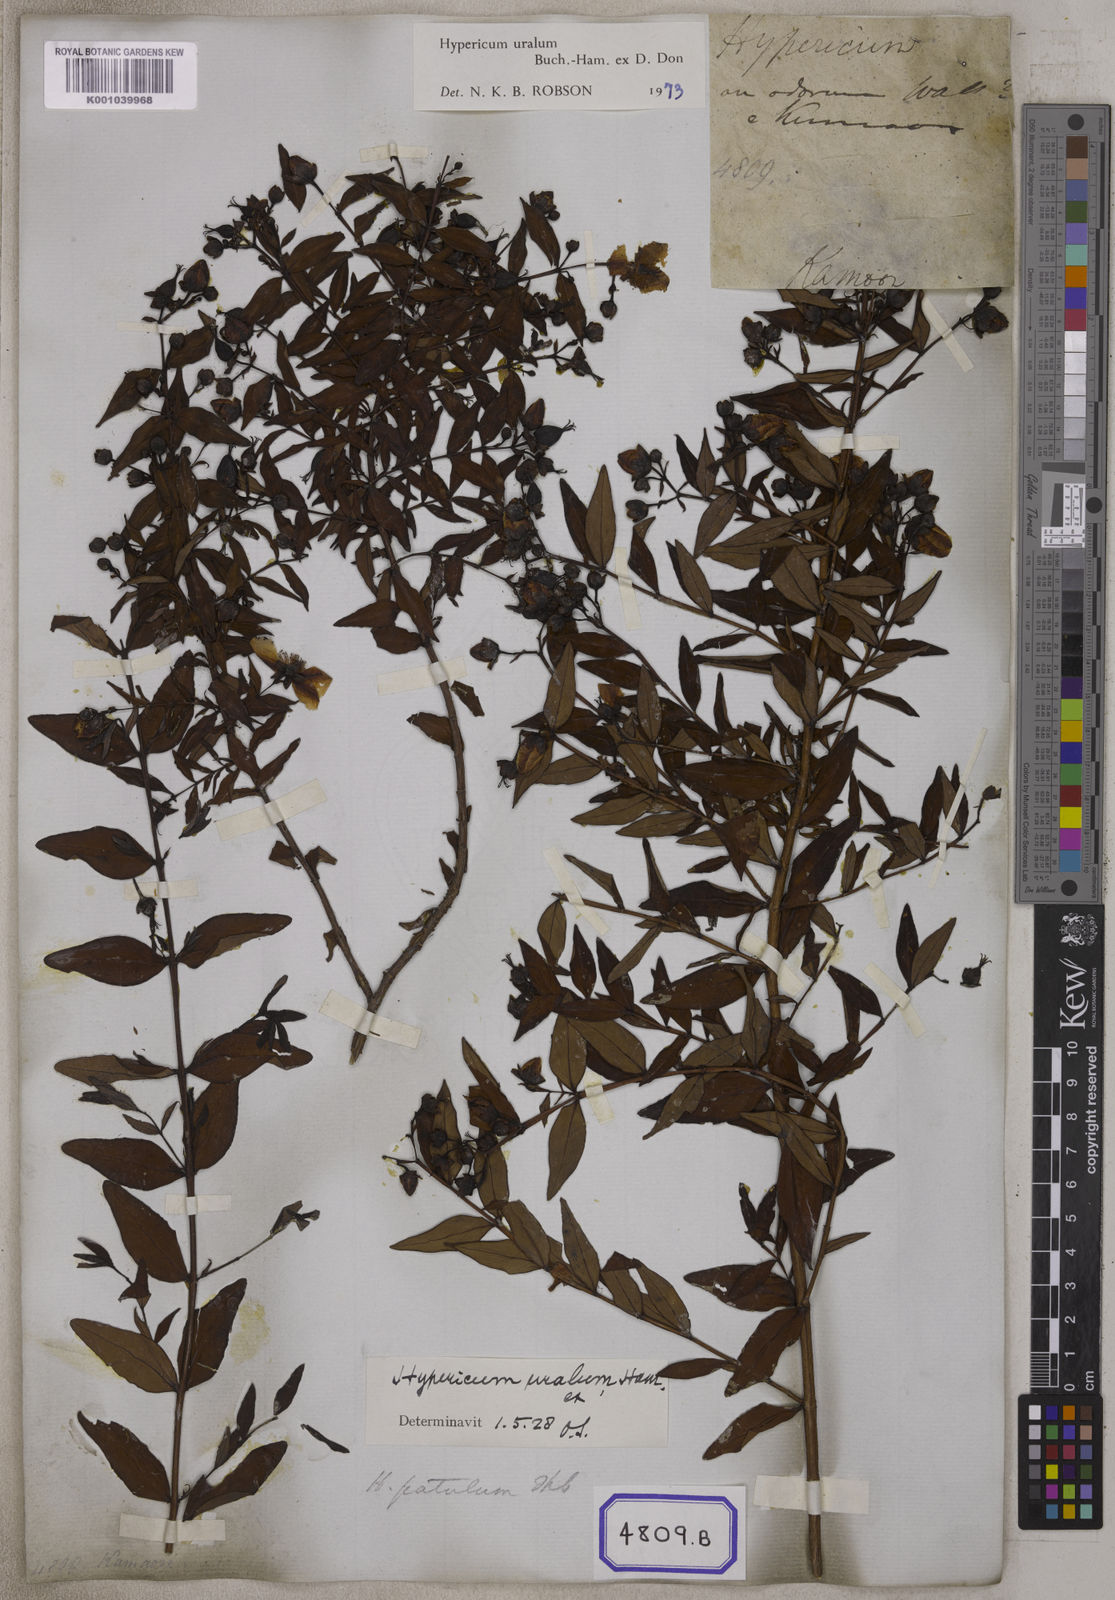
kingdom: Plantae
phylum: Tracheophyta
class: Magnoliopsida
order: Malpighiales
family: Hypericaceae
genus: Hypericum
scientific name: Hypericum patulum
